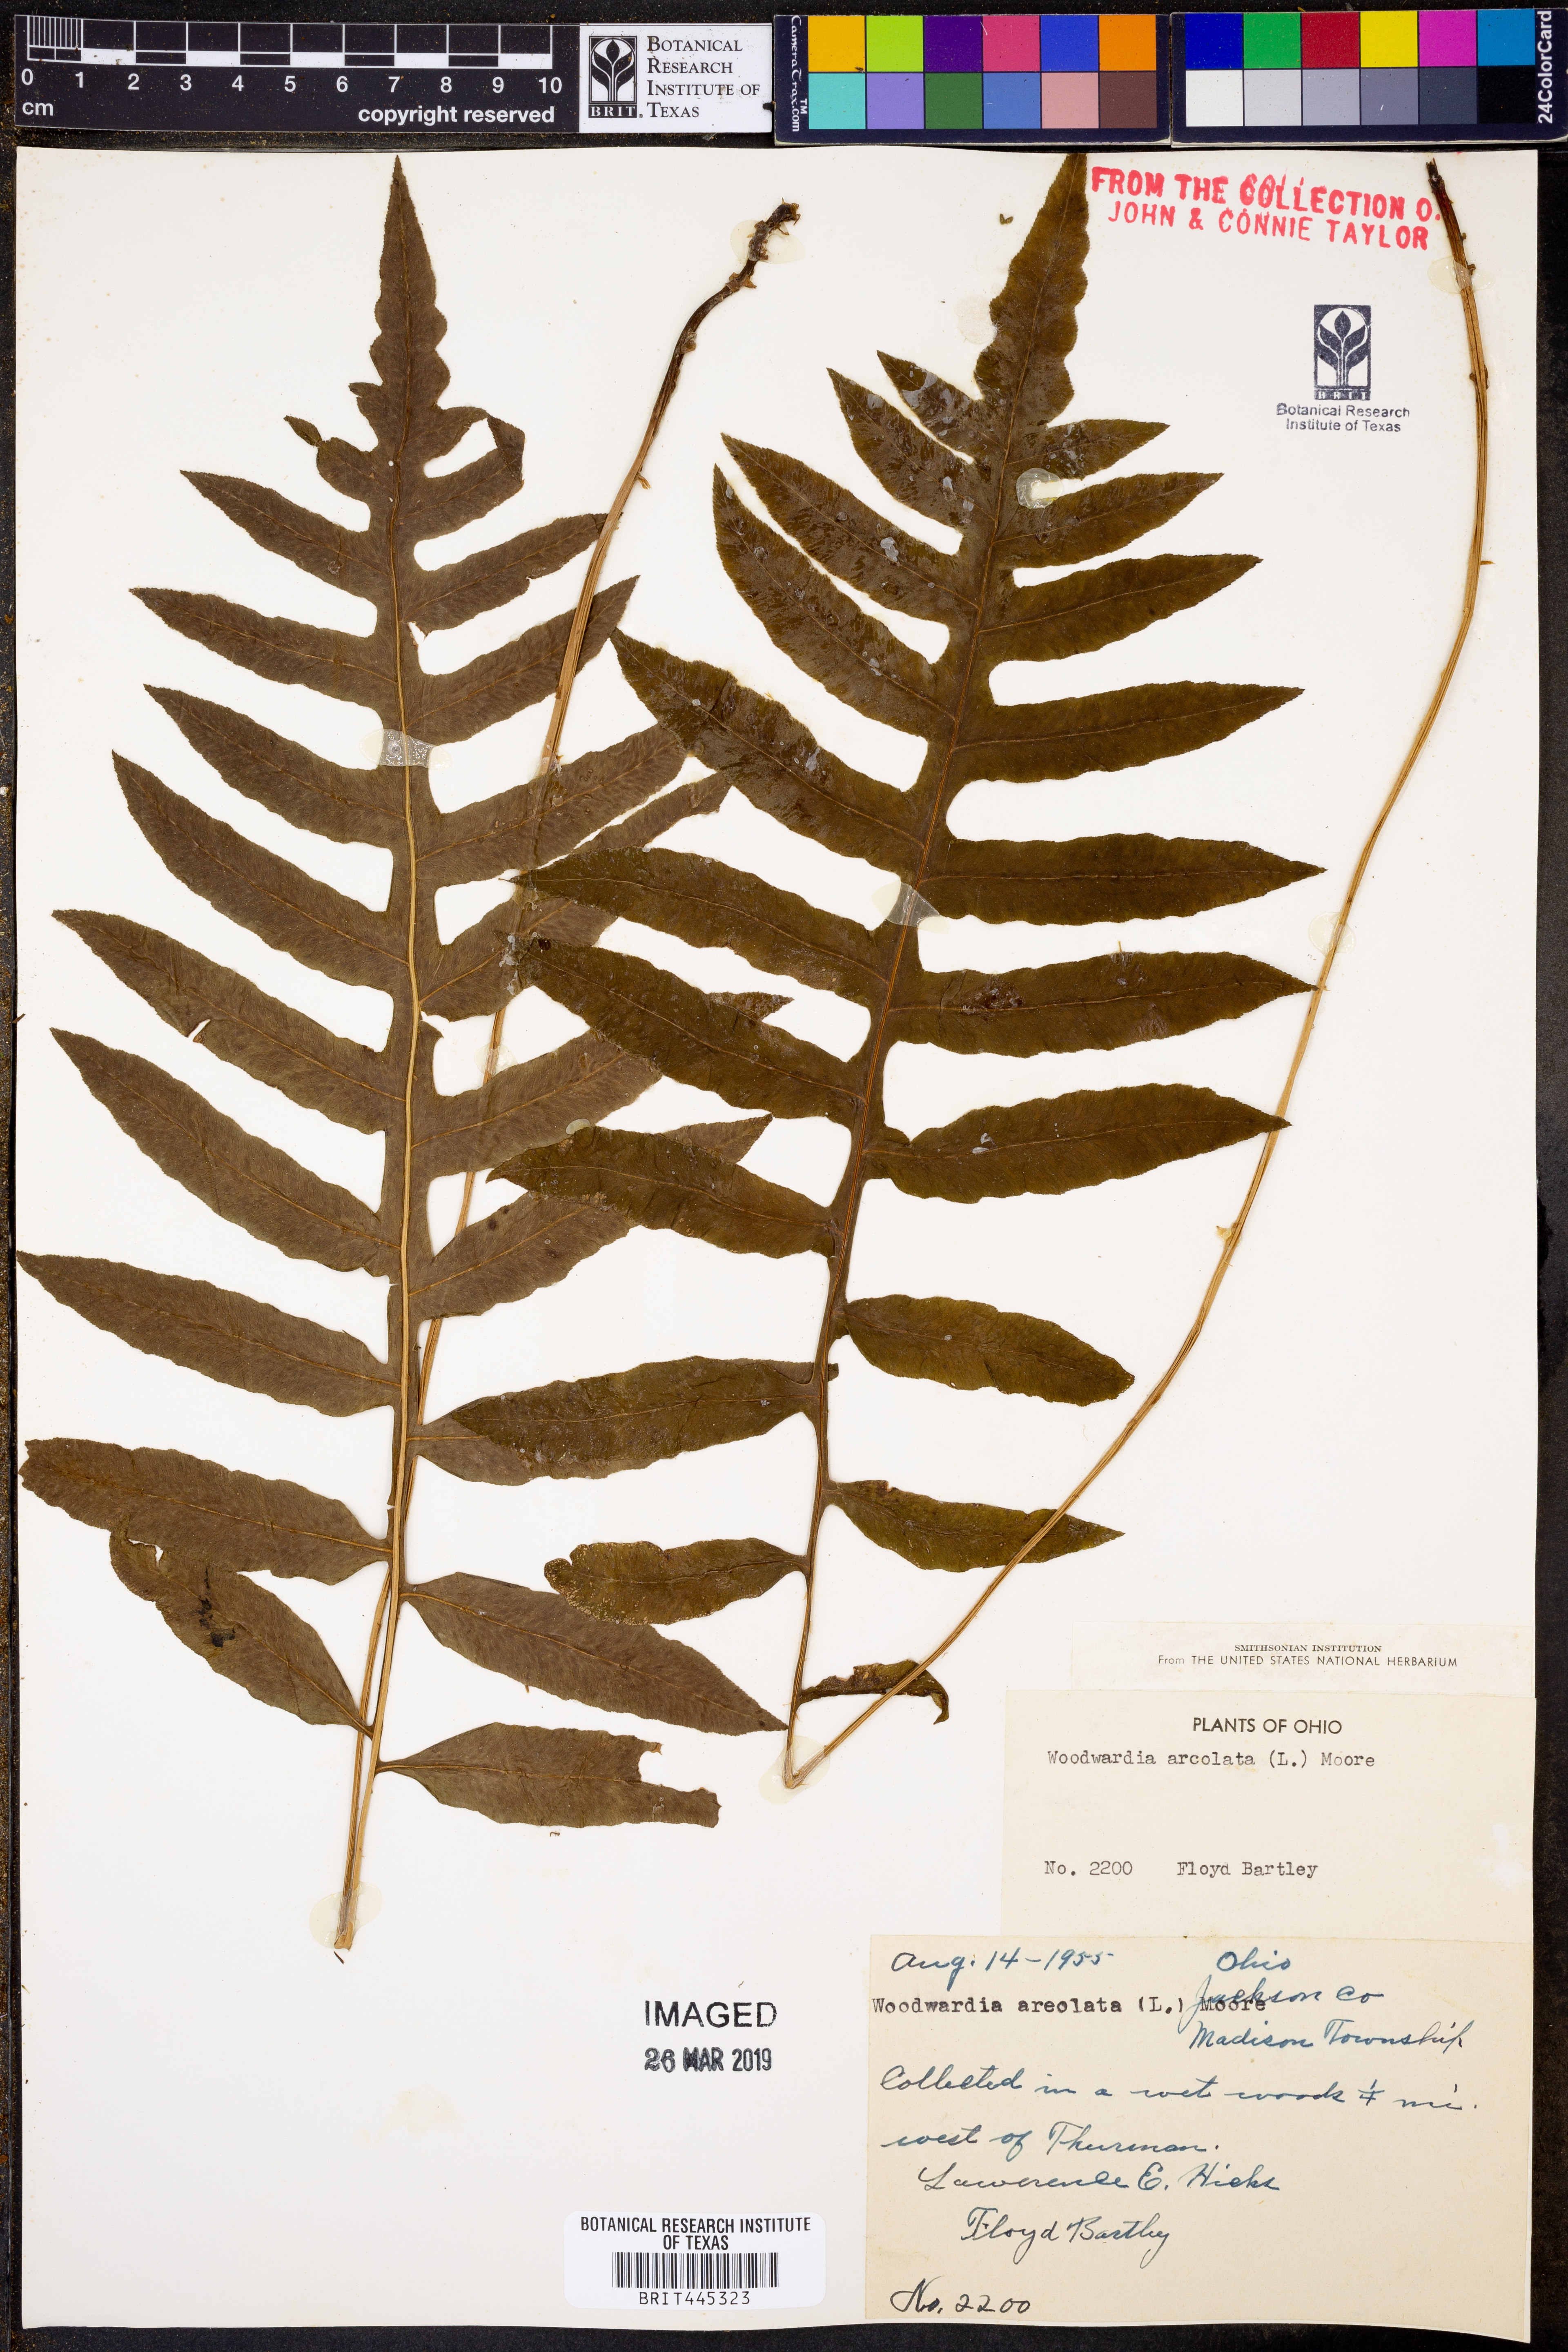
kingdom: Plantae
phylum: Tracheophyta
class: Polypodiopsida
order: Polypodiales
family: Blechnaceae
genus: Lorinseria
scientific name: Lorinseria areolata
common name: Dwarf chain fern
